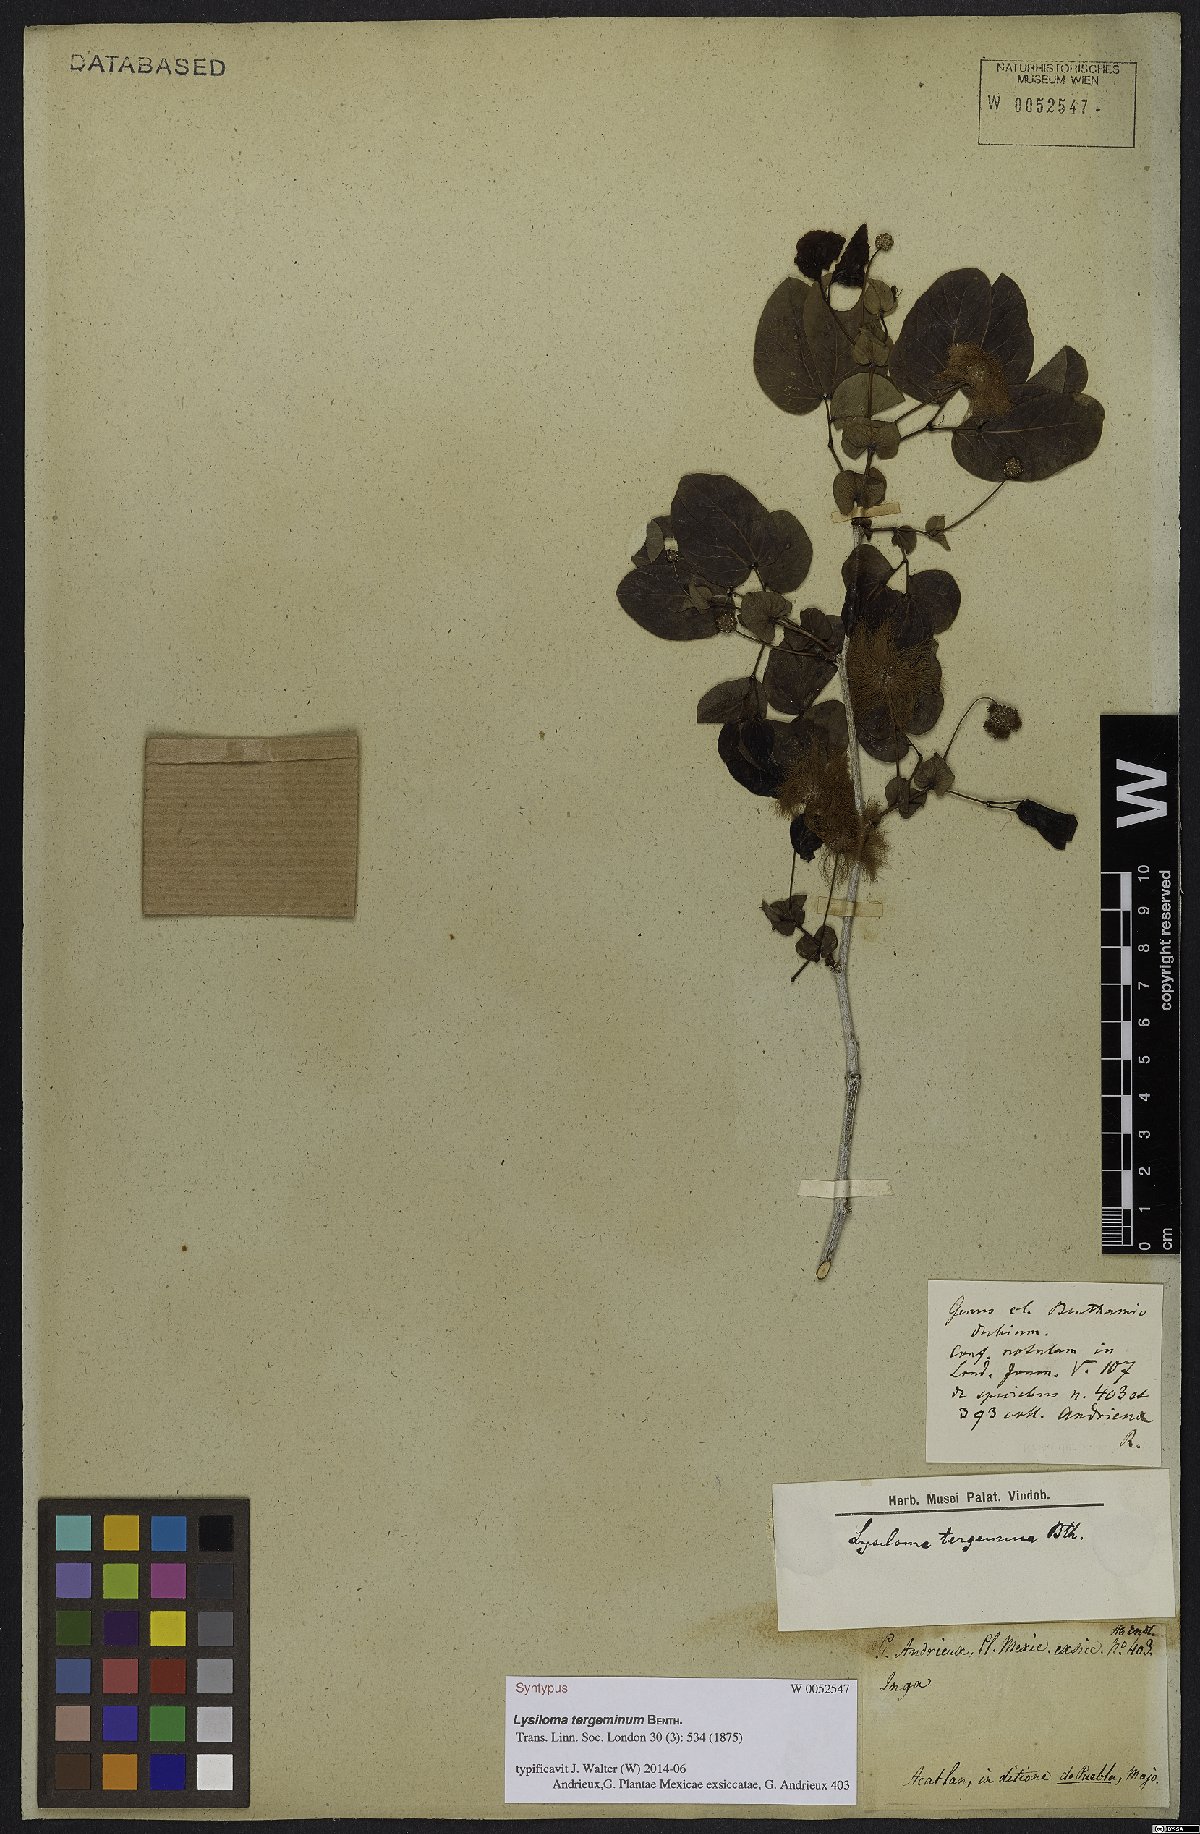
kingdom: Plantae
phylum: Tracheophyta
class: Magnoliopsida
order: Fabales
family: Fabaceae
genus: Lysiloma
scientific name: Lysiloma tergeminum
